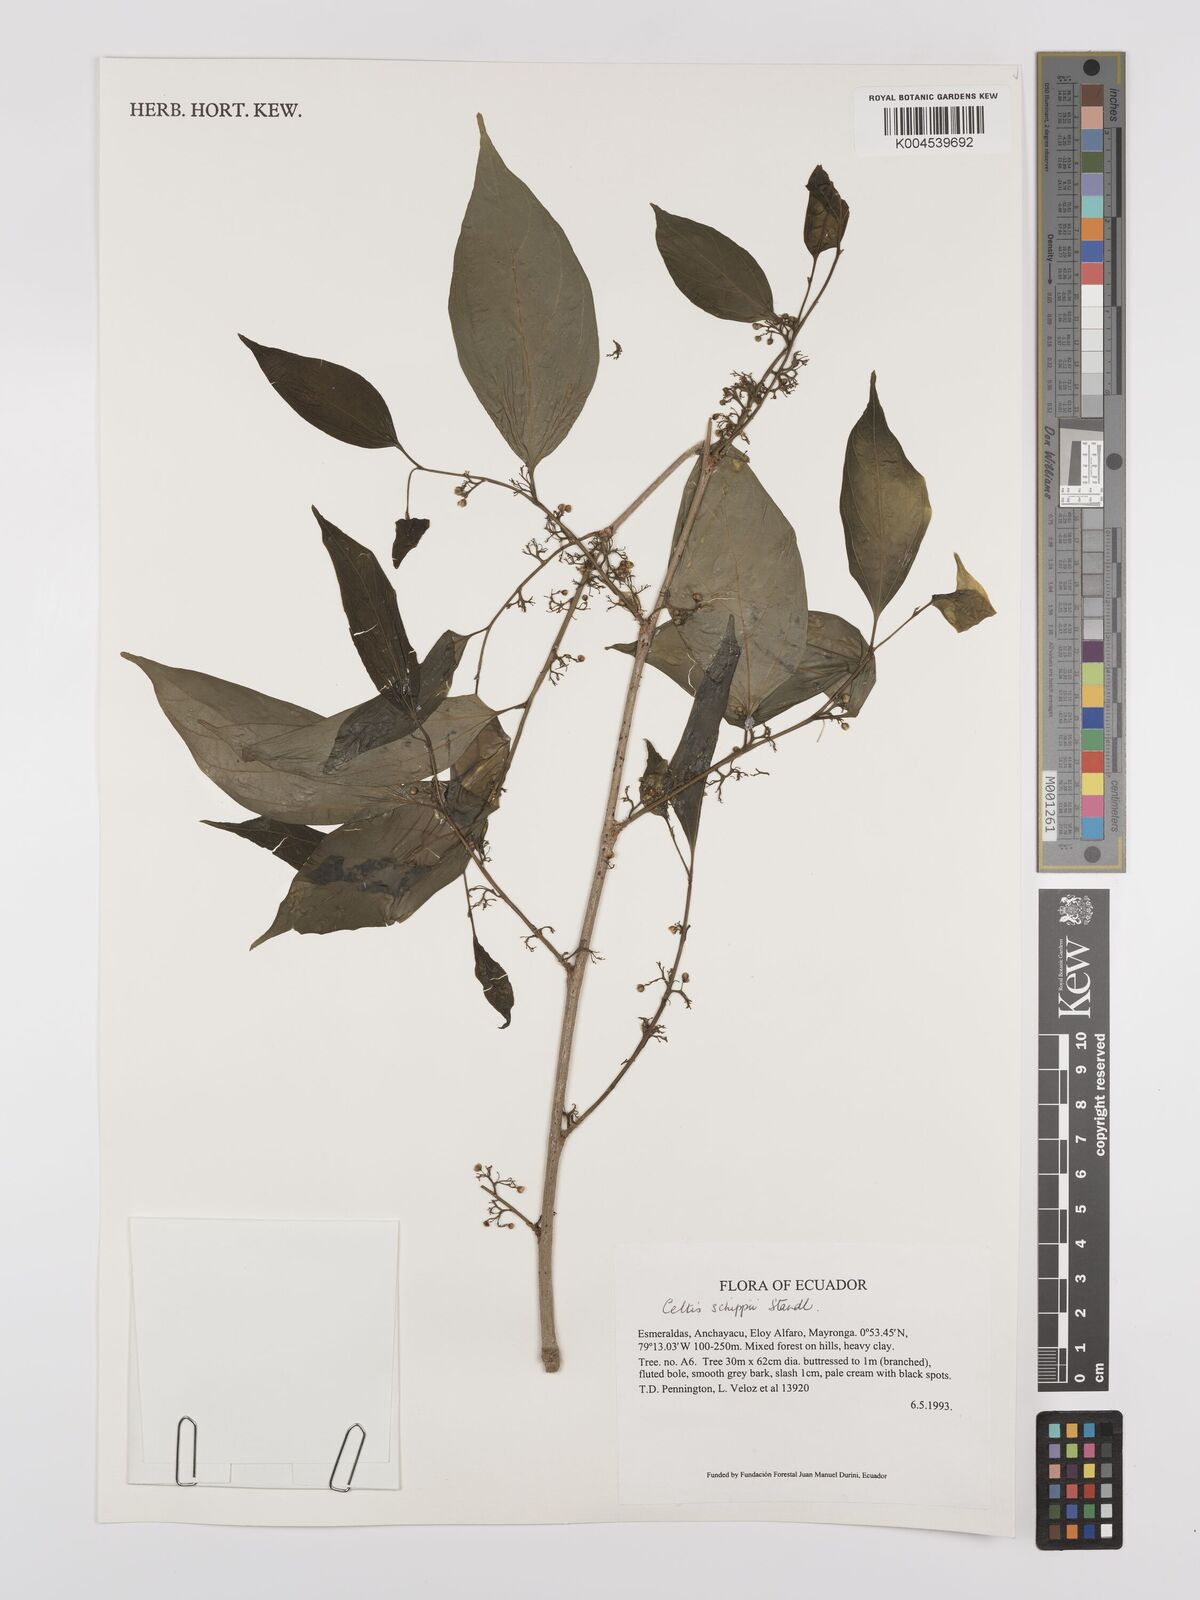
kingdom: Plantae
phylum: Tracheophyta
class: Magnoliopsida
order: Rosales
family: Cannabaceae
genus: Celtis
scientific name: Celtis schippii
